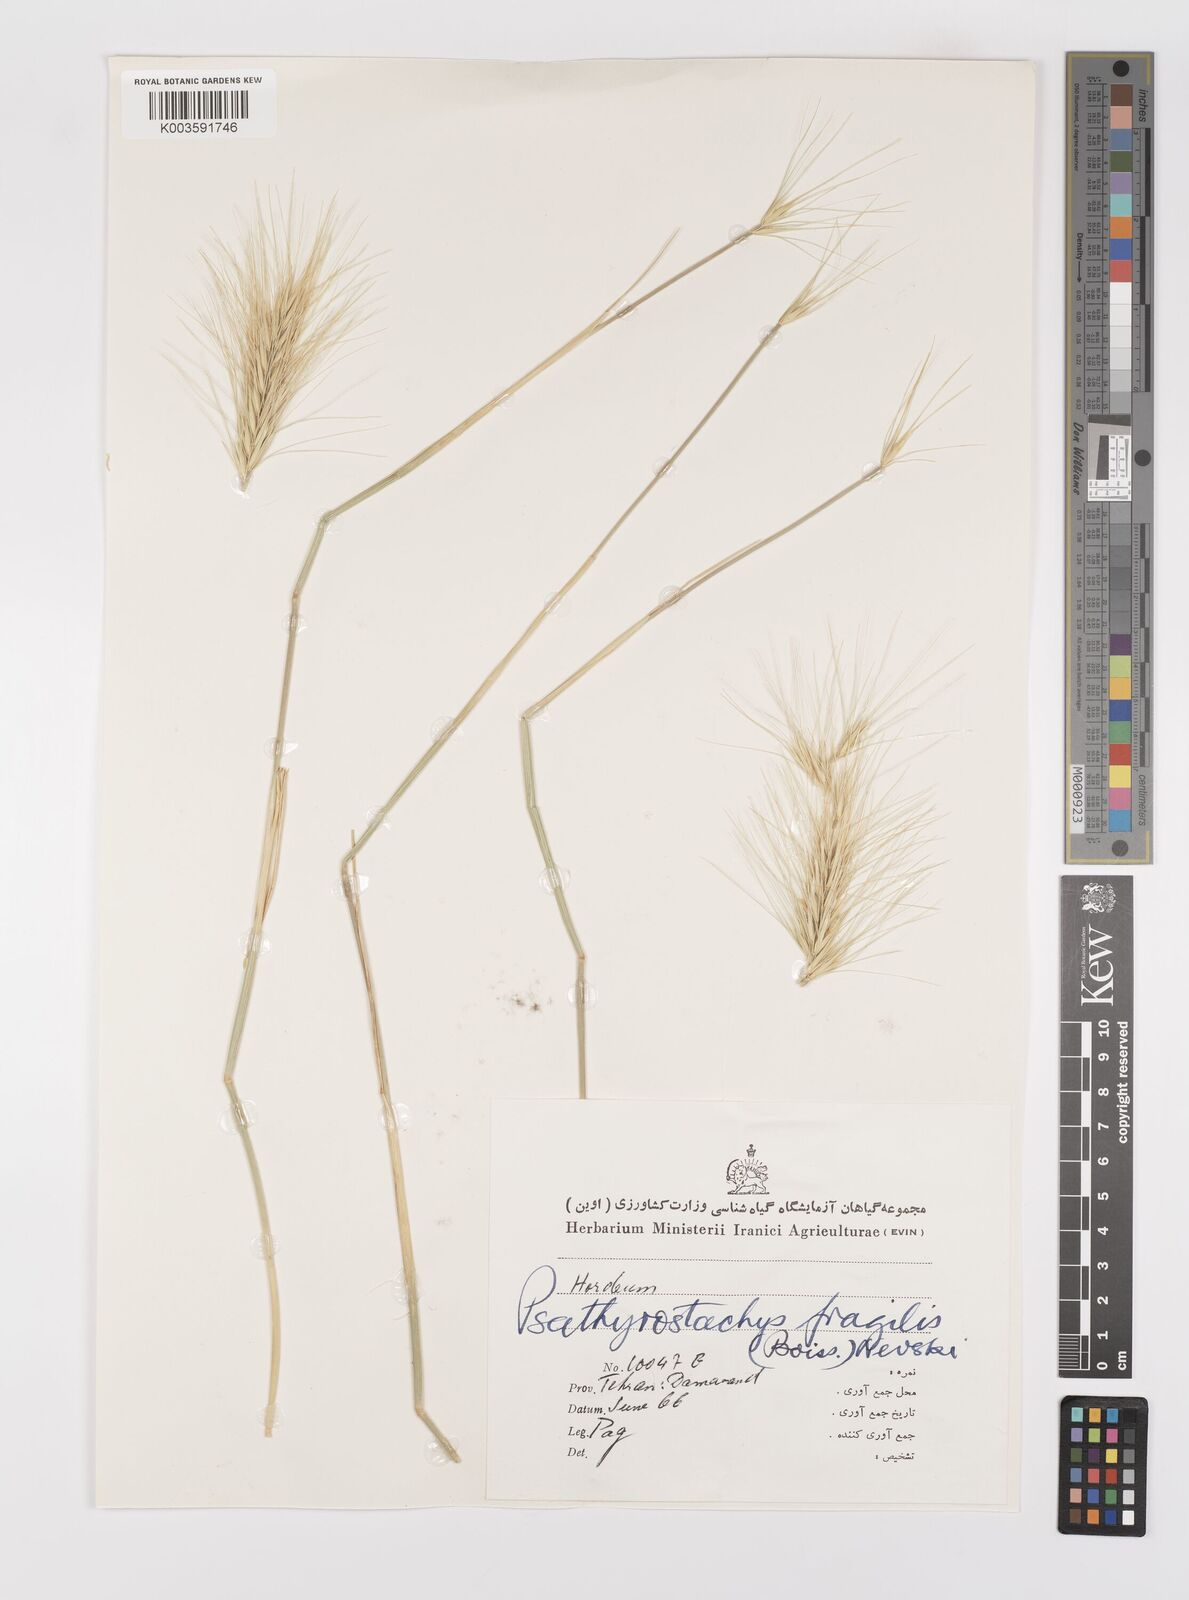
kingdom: Plantae
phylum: Tracheophyta
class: Liliopsida
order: Poales
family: Poaceae
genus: Psathyrostachys
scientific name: Psathyrostachys fragilis
